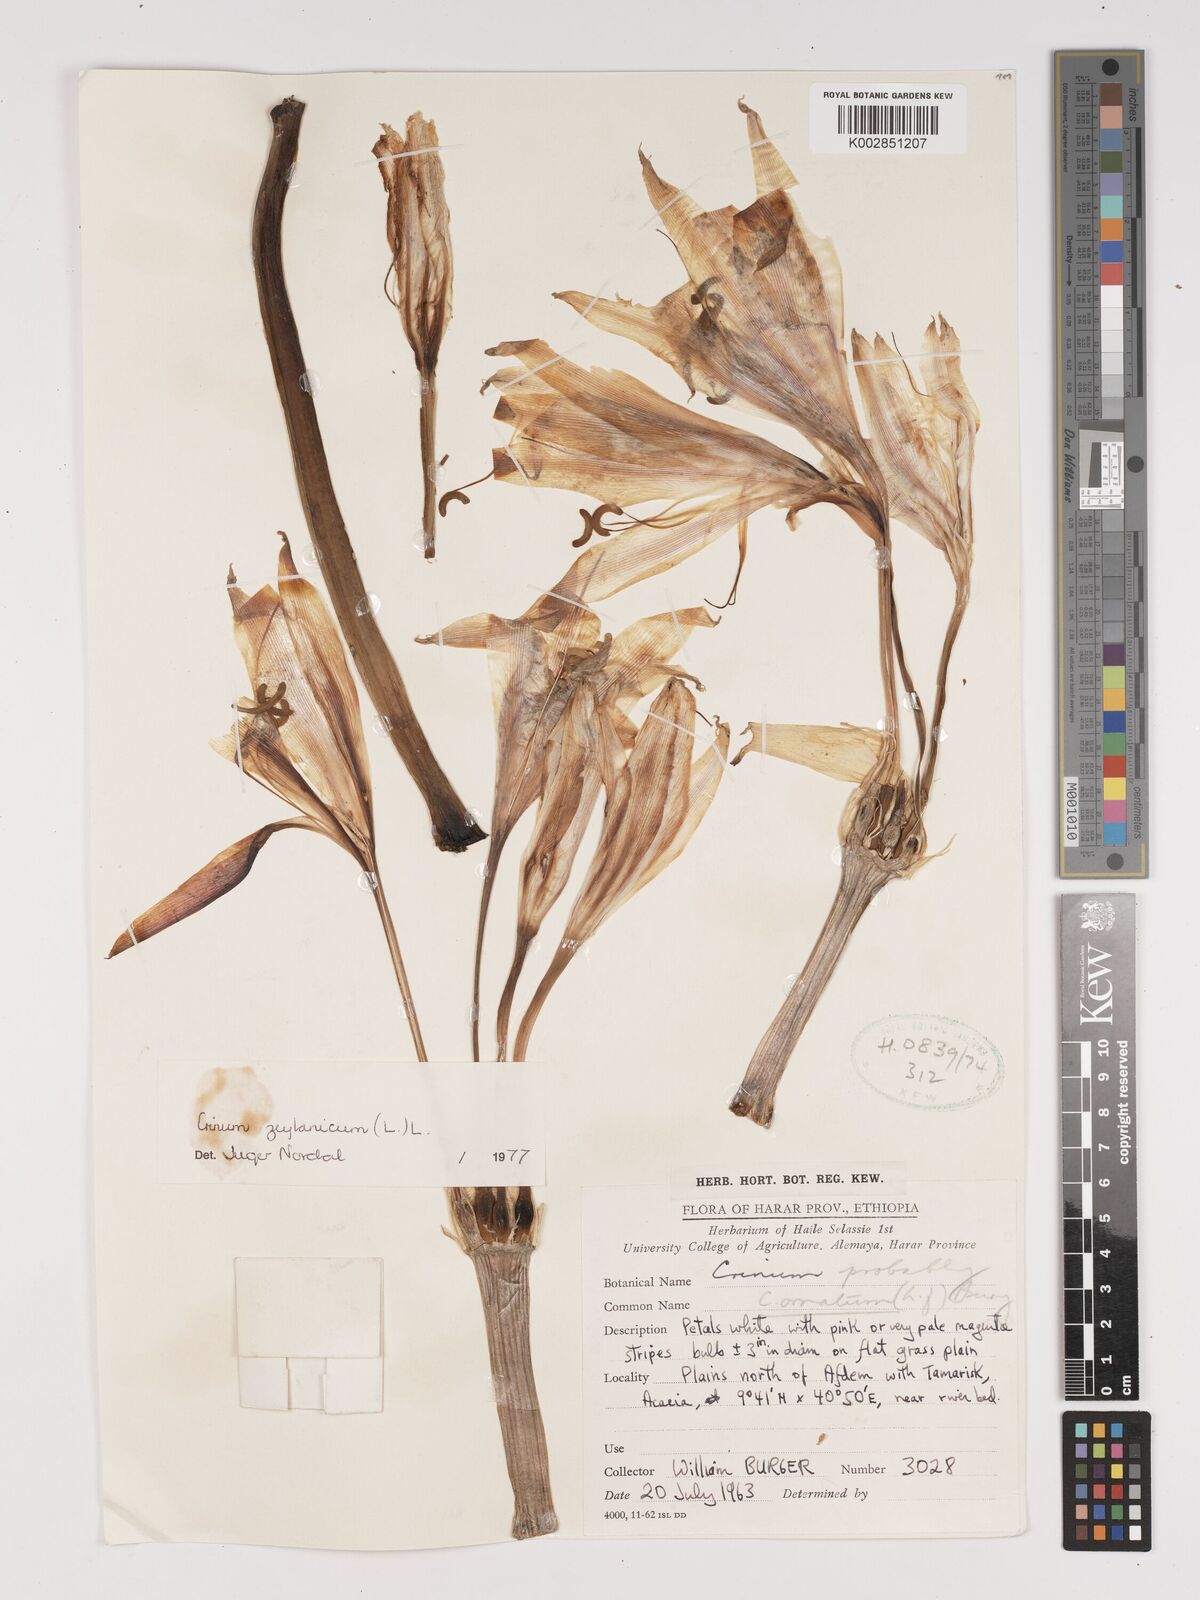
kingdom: Plantae
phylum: Tracheophyta
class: Liliopsida
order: Asparagales
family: Amaryllidaceae
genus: Crinum
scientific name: Crinum zeylanicum
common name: Ceylon swamplily
